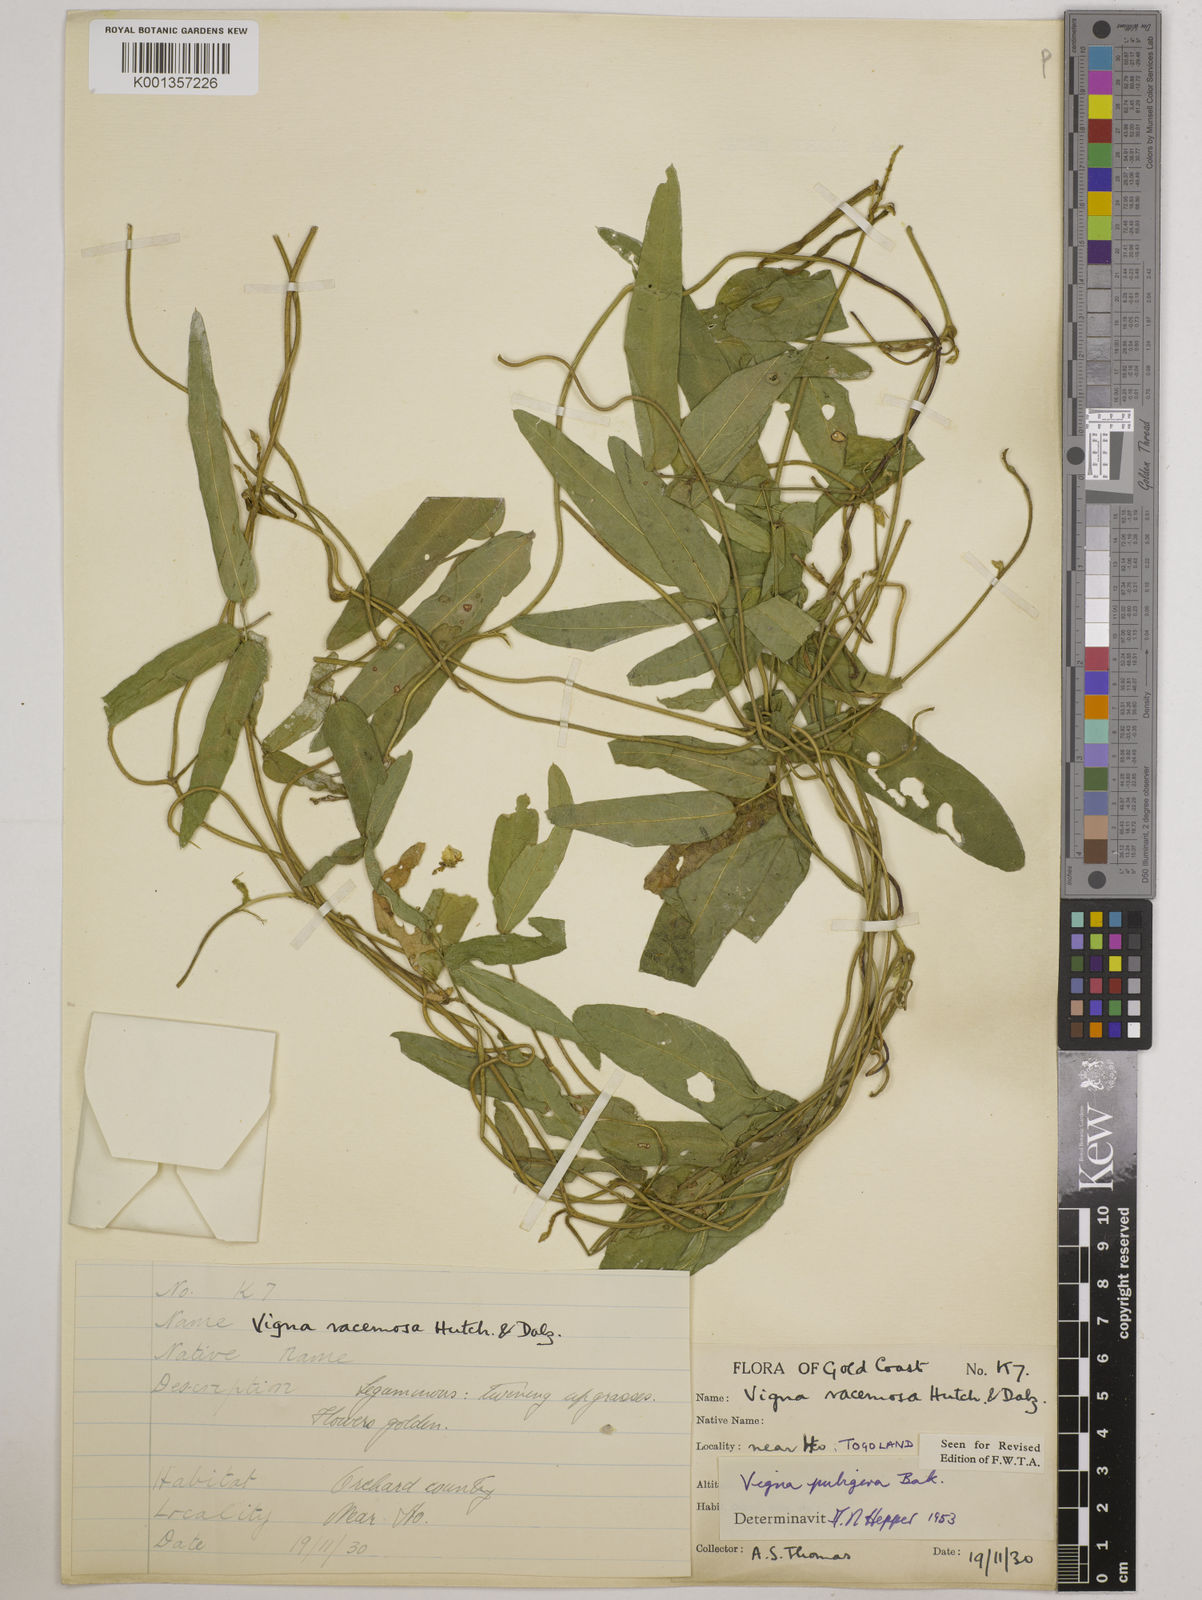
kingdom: Plantae
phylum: Tracheophyta
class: Magnoliopsida
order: Fabales
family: Fabaceae
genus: Vigna
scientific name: Vigna ambacensis
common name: Tsarkiyan zomo
